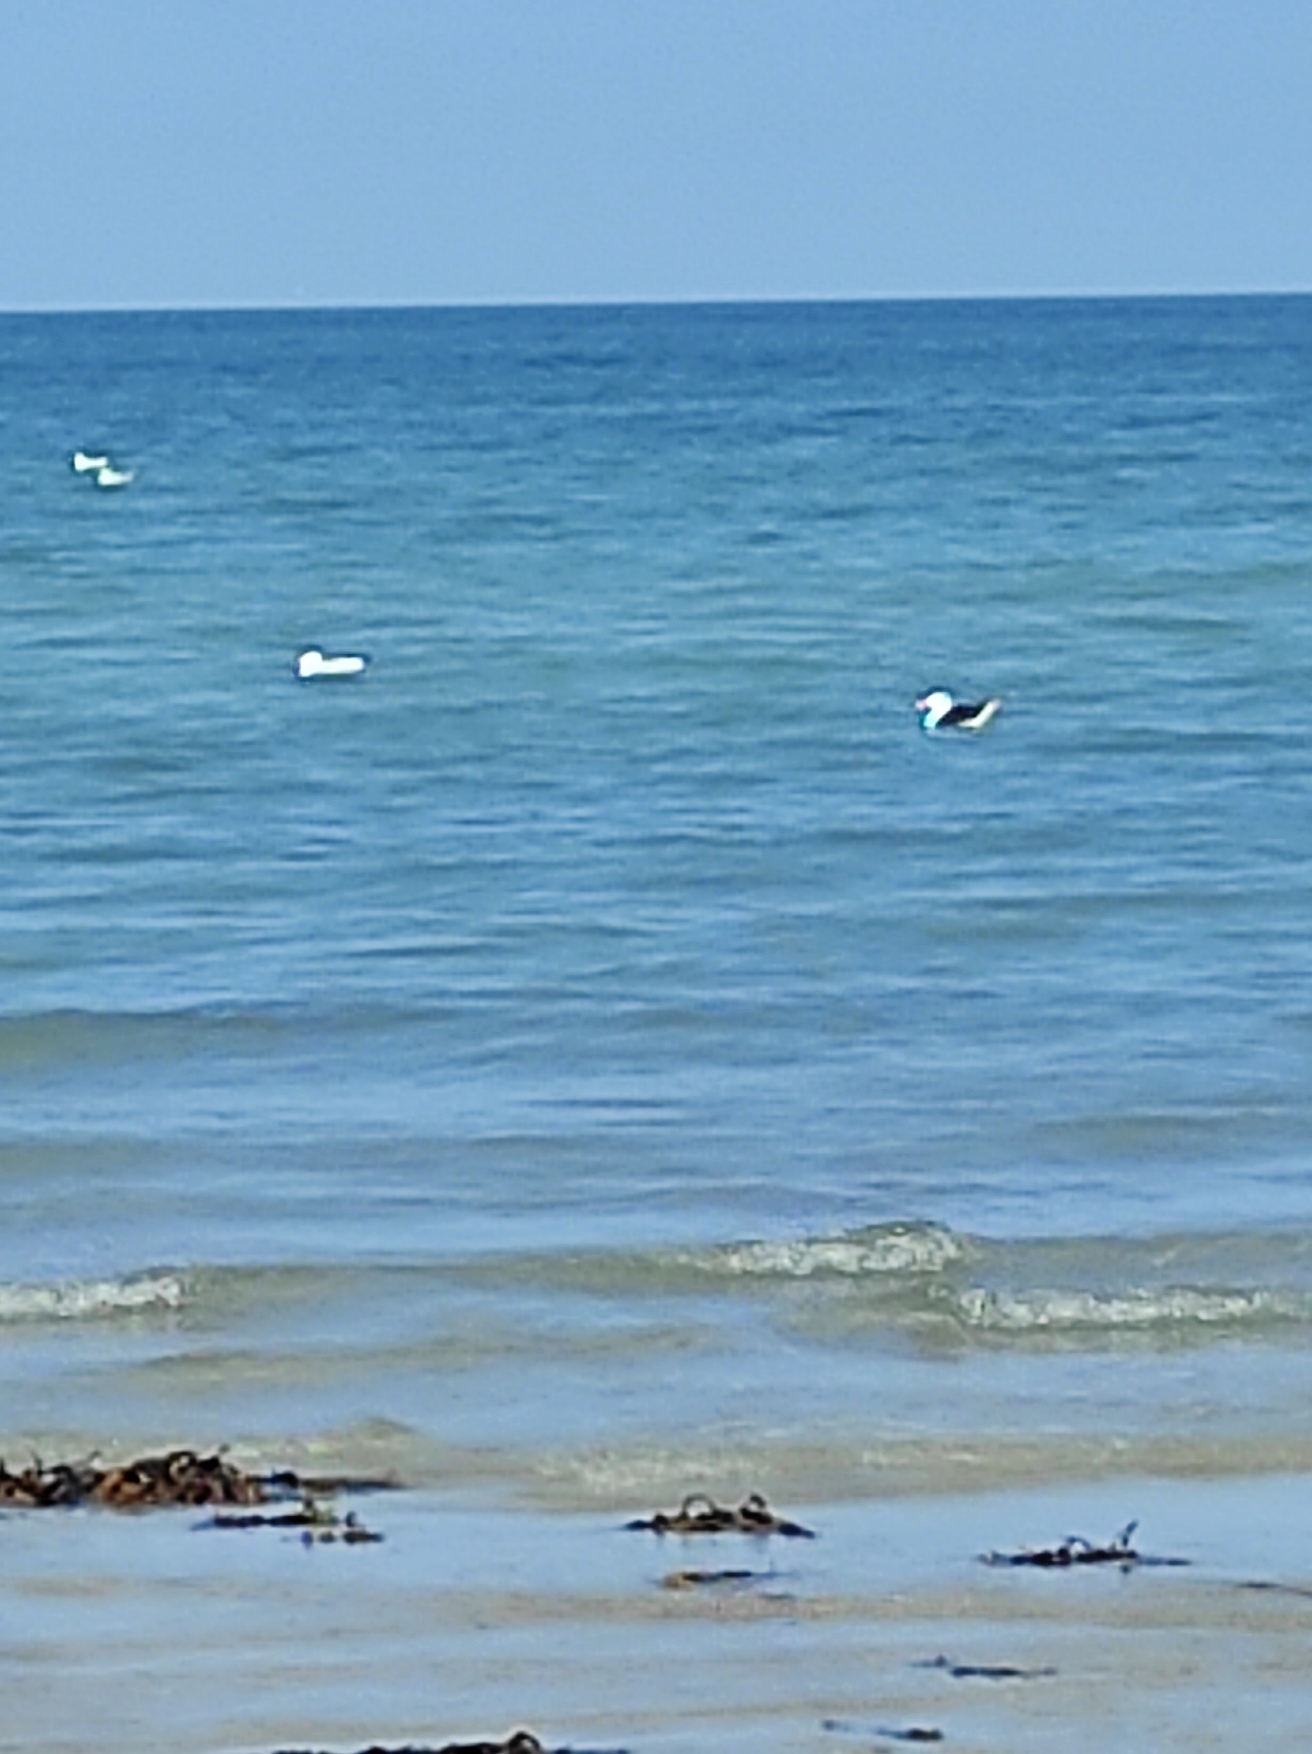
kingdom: Animalia
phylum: Chordata
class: Aves
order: Charadriiformes
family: Laridae
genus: Larus
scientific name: Larus marinus
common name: Svartbag
